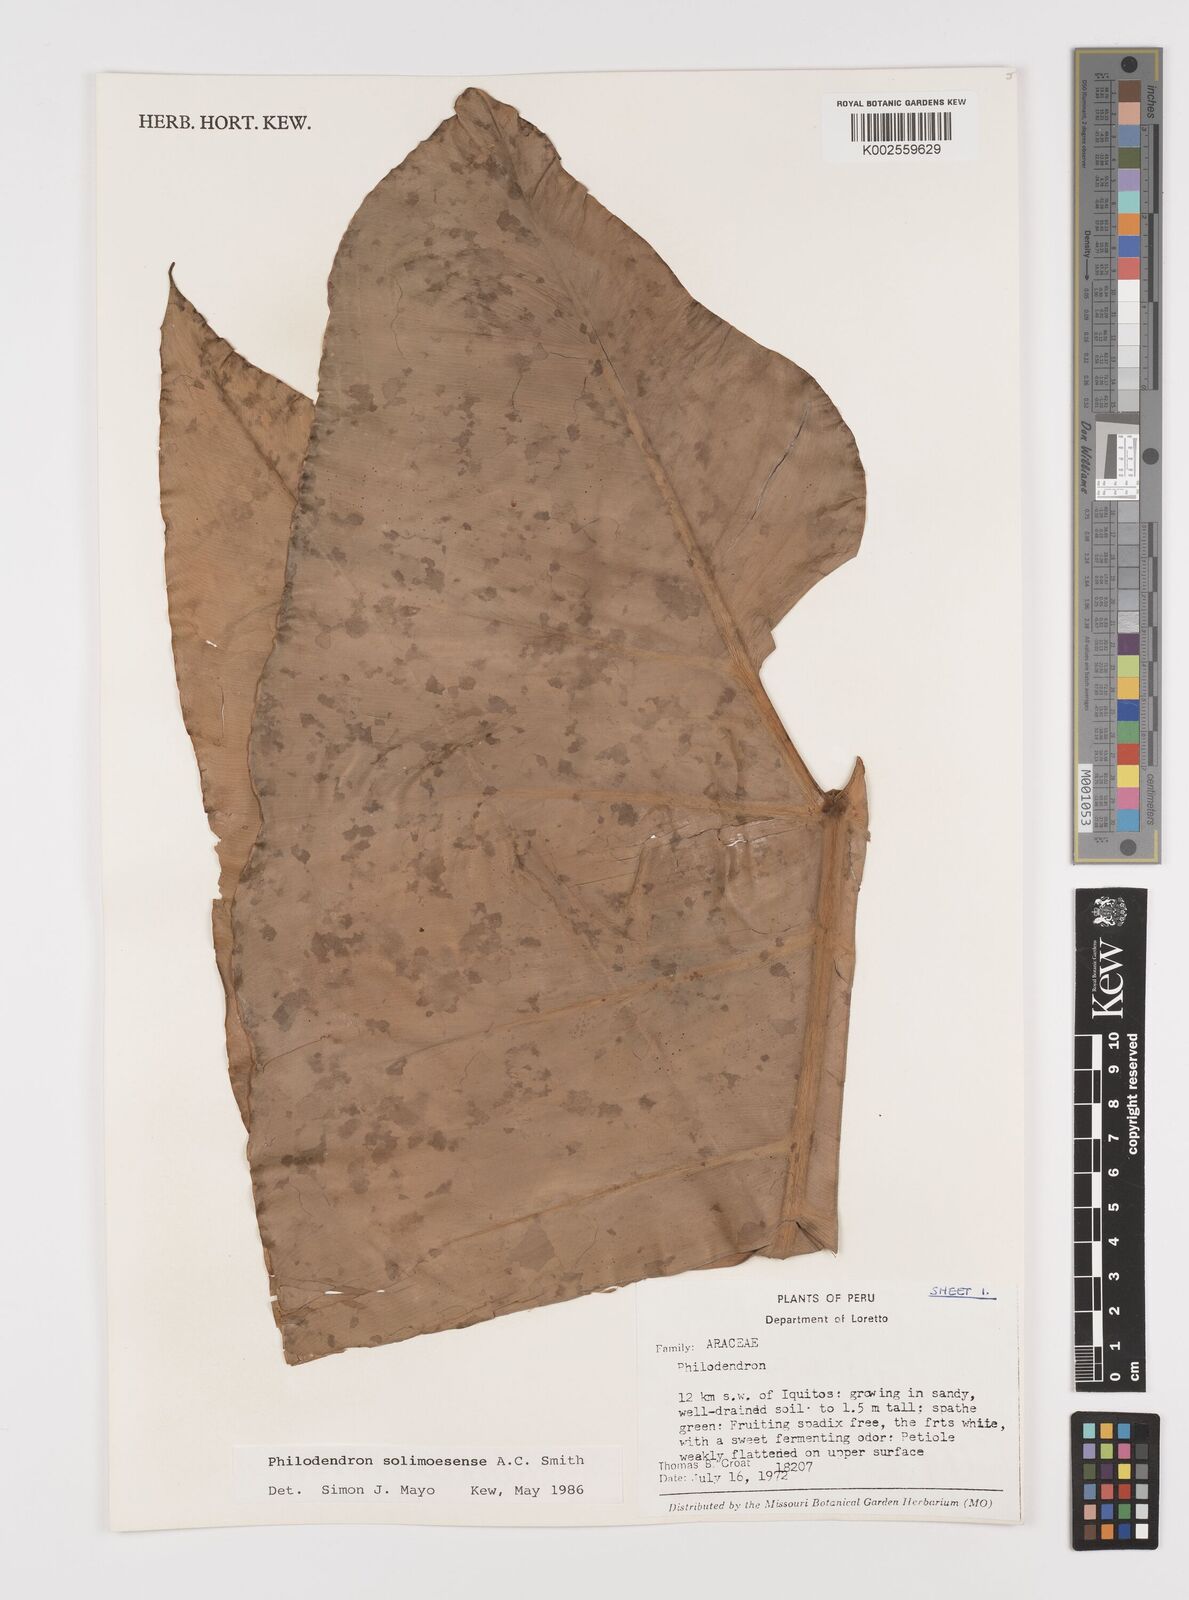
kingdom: Plantae
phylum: Tracheophyta
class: Liliopsida
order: Alismatales
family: Araceae
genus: Thaumatophyllum
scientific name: Thaumatophyllum solimoesense
